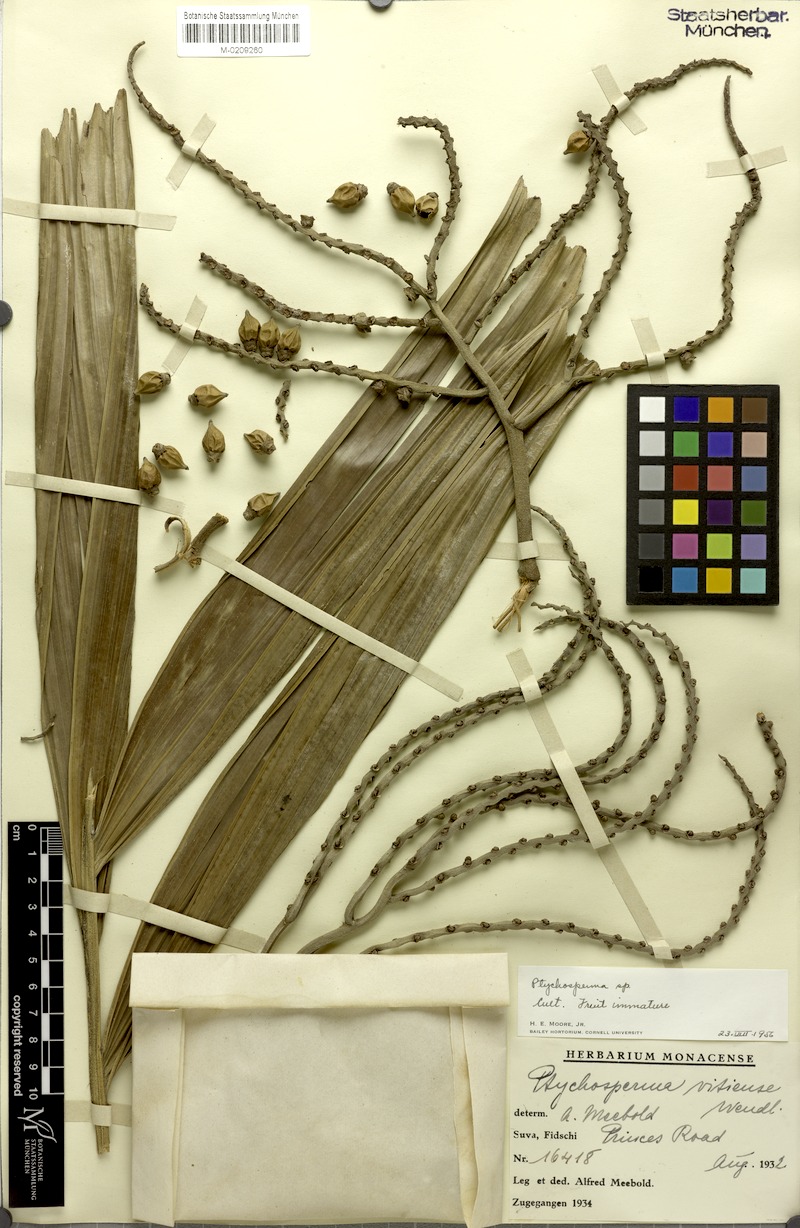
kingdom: Plantae
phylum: Tracheophyta
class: Liliopsida
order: Arecales
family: Arecaceae
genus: Veitchia
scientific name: Veitchia vitiensis
